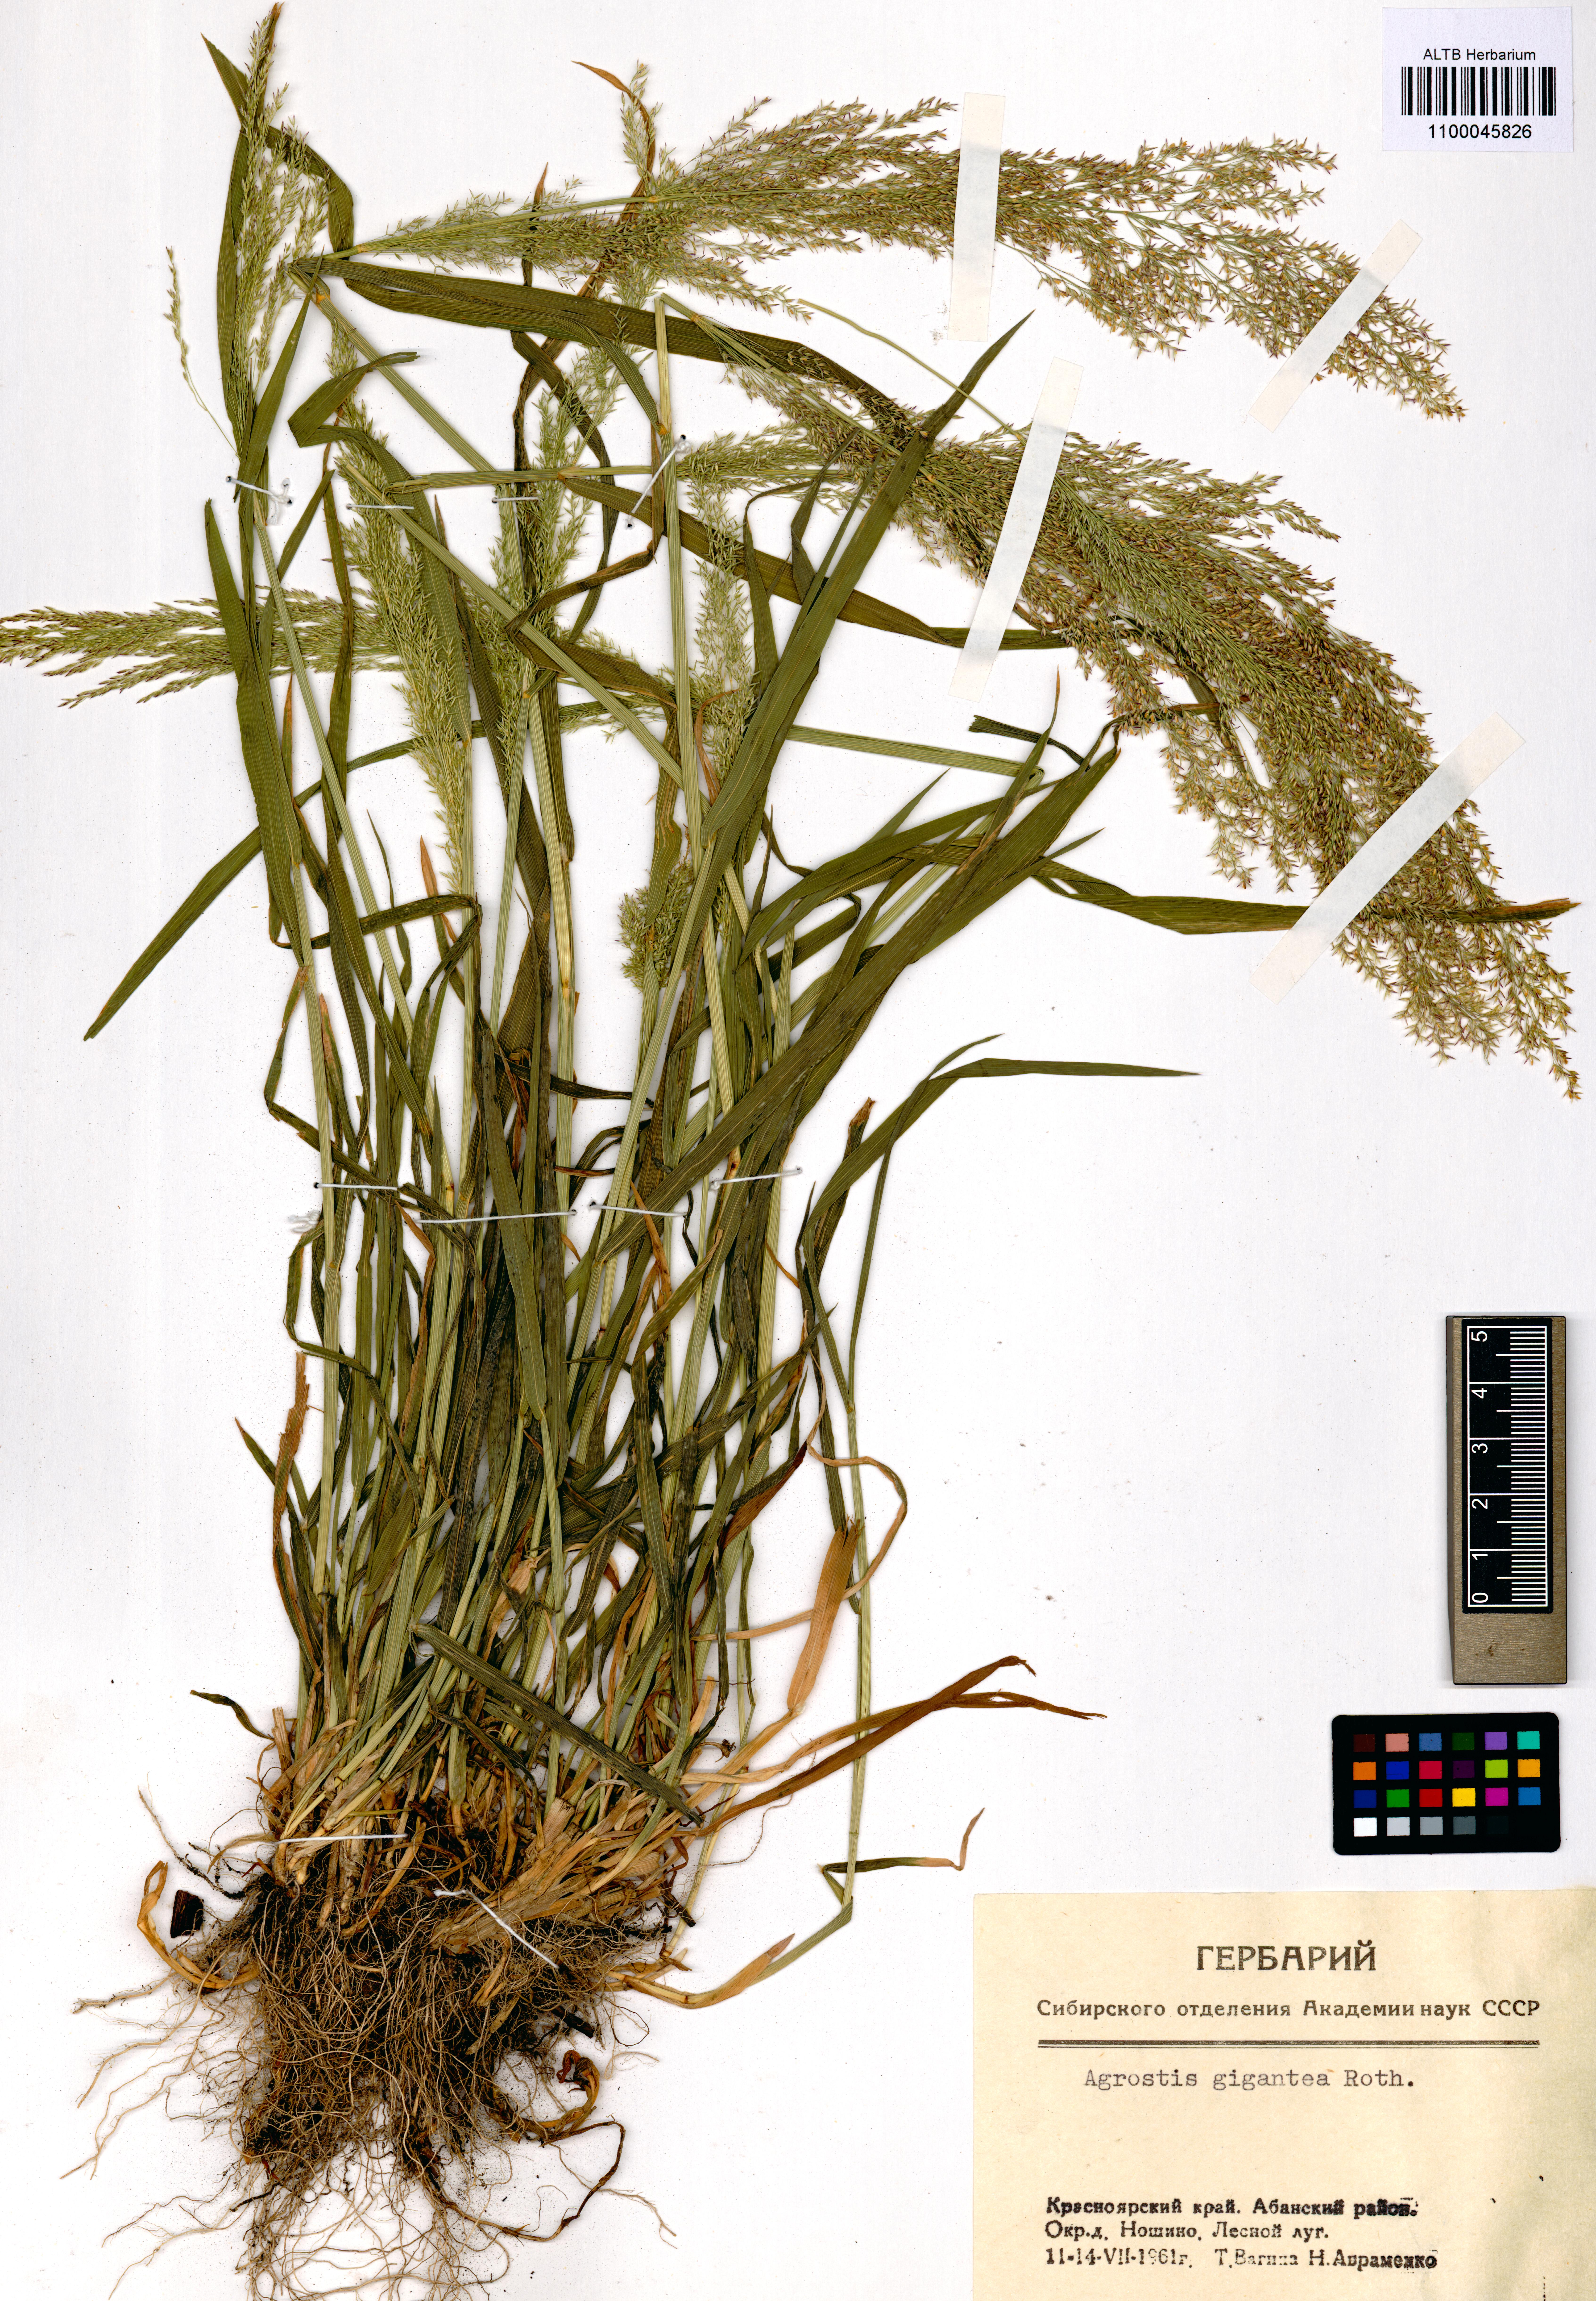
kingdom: Plantae
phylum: Tracheophyta
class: Liliopsida
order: Poales
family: Poaceae
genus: Agrostis
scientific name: Agrostis gigantea
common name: Black bent
